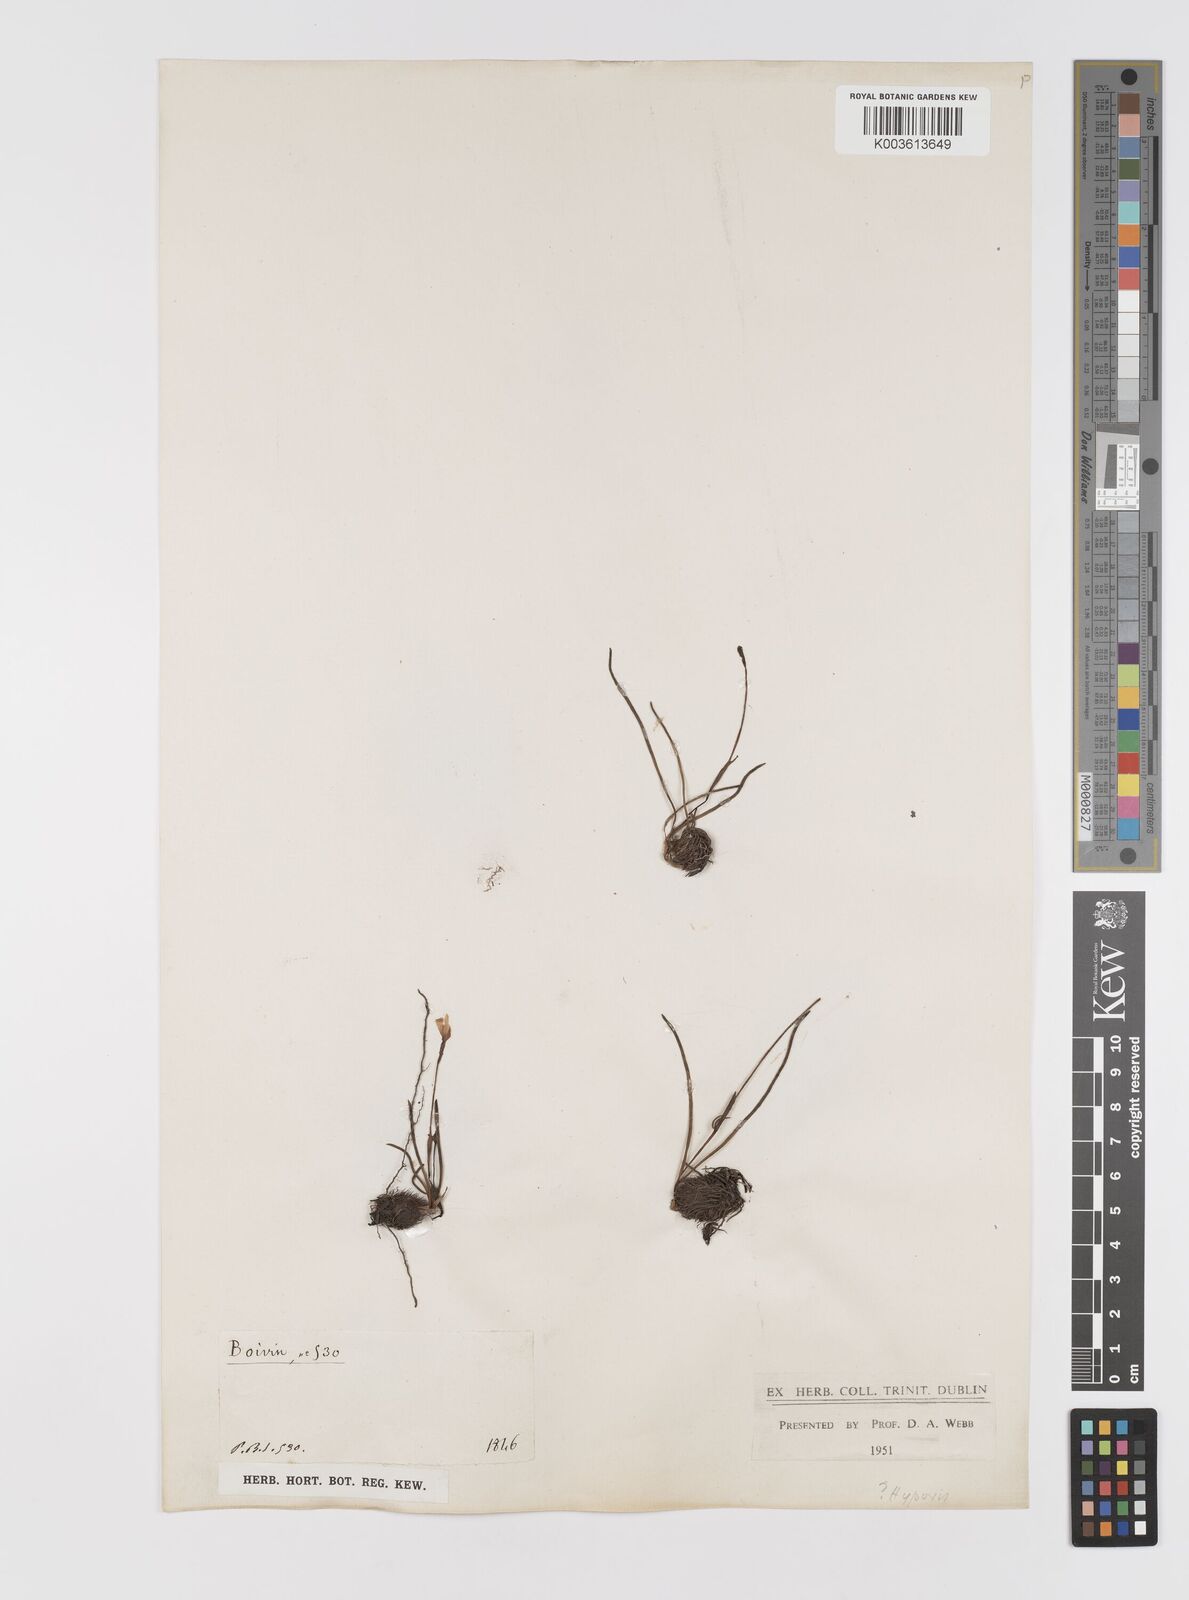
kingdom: Plantae
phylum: Tracheophyta
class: Liliopsida
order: Asparagales
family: Hypoxidaceae
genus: Pauridia
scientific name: Pauridia
